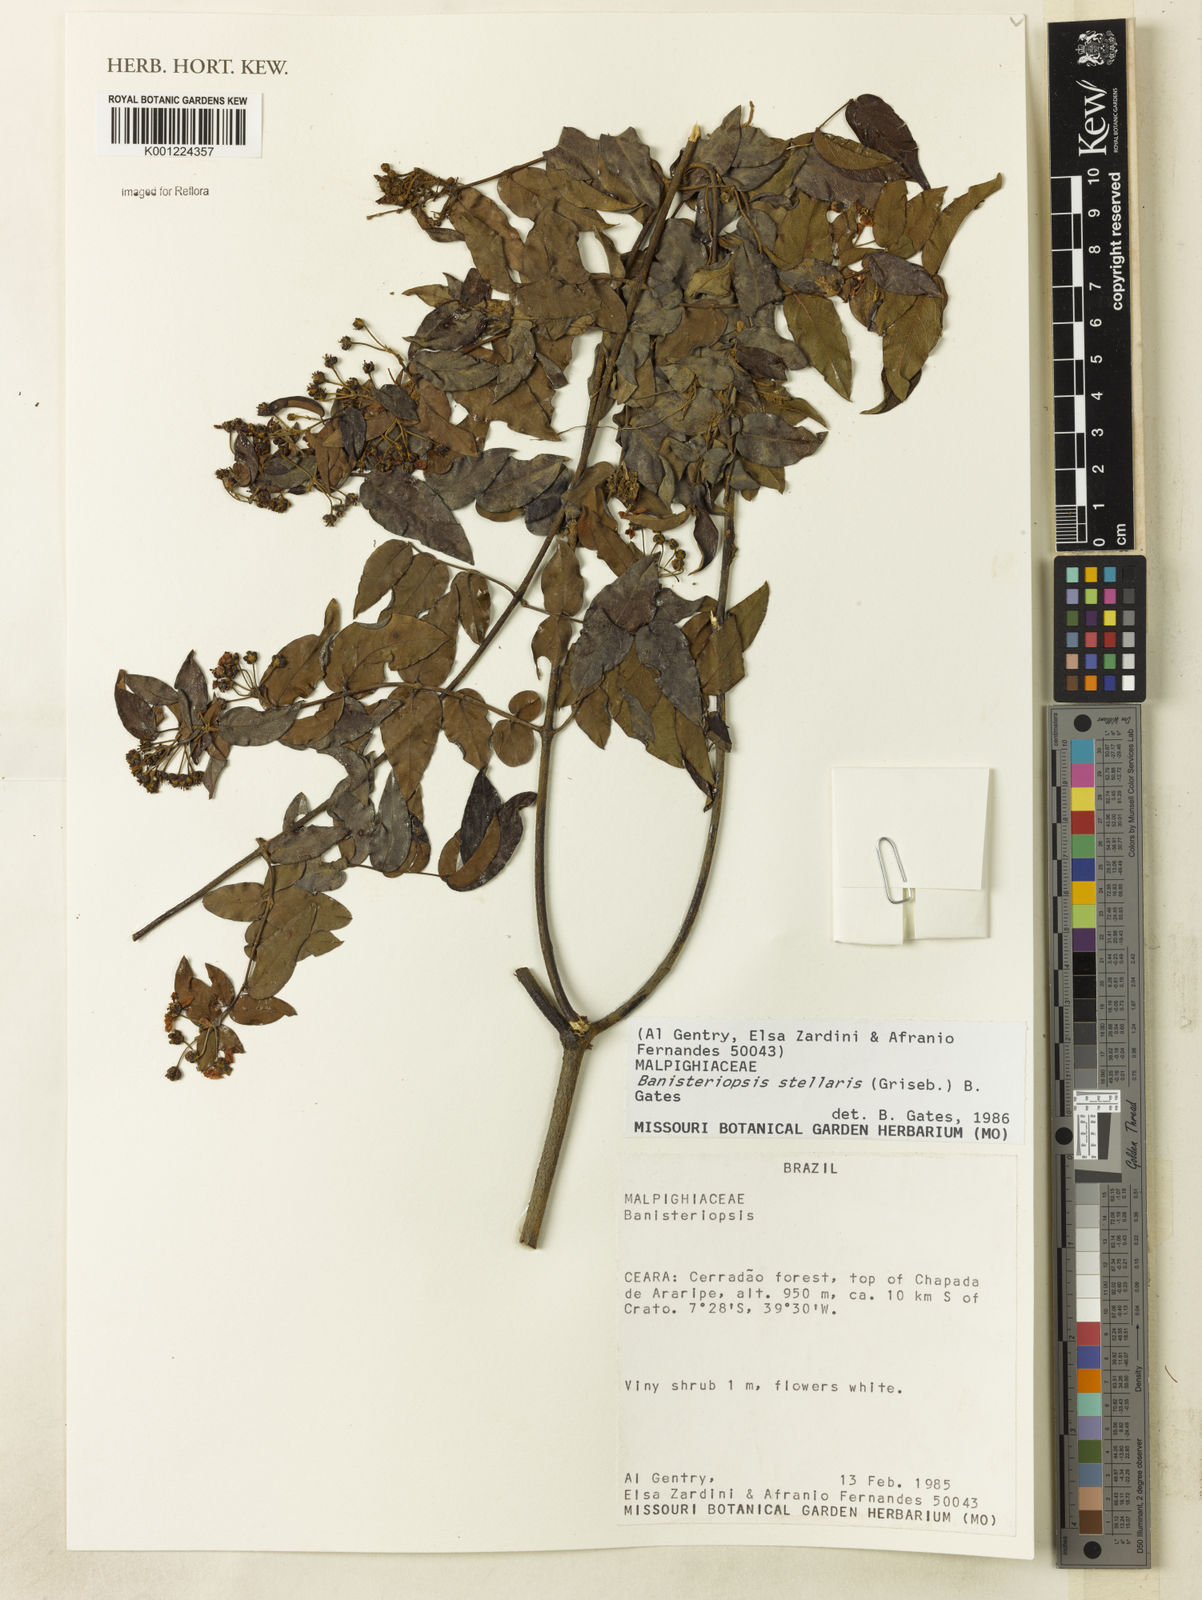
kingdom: Plantae
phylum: Tracheophyta
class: Magnoliopsida
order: Malpighiales
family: Malpighiaceae
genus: Banisteriopsis
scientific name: Banisteriopsis stellaris
